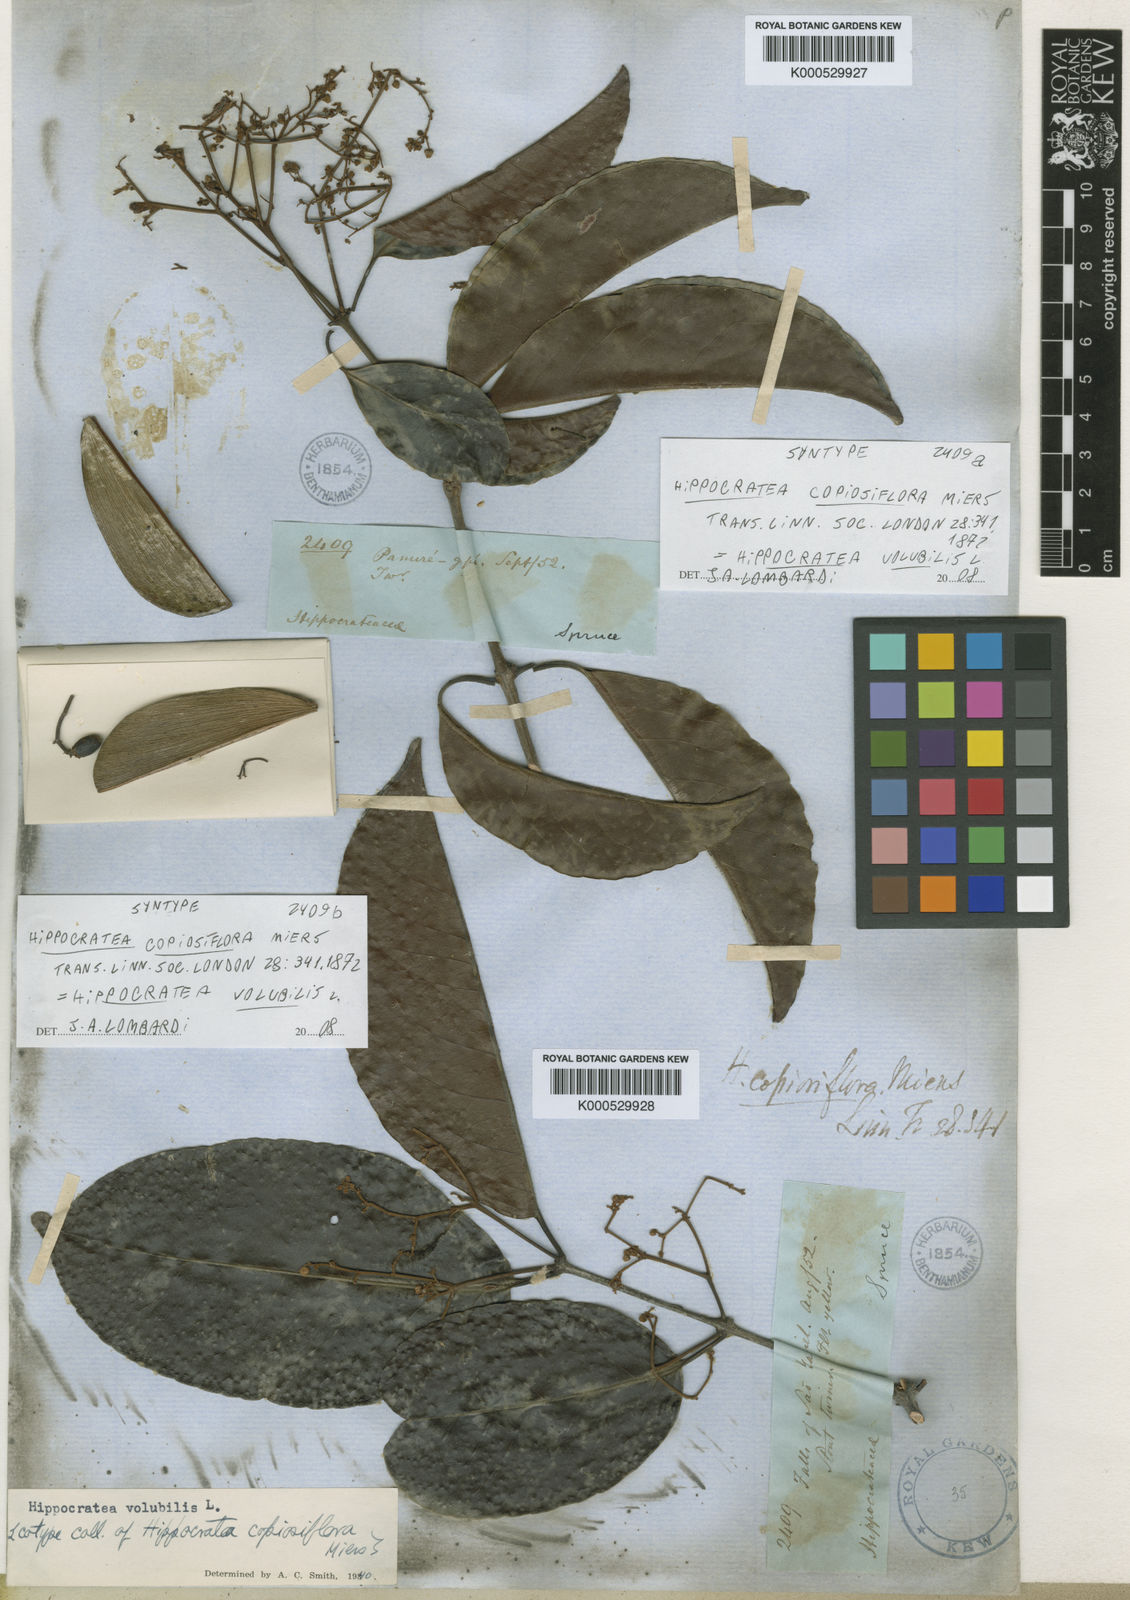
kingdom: Plantae
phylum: Tracheophyta
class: Magnoliopsida
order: Celastrales
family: Celastraceae
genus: Hippocratea
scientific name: Hippocratea volubilis
